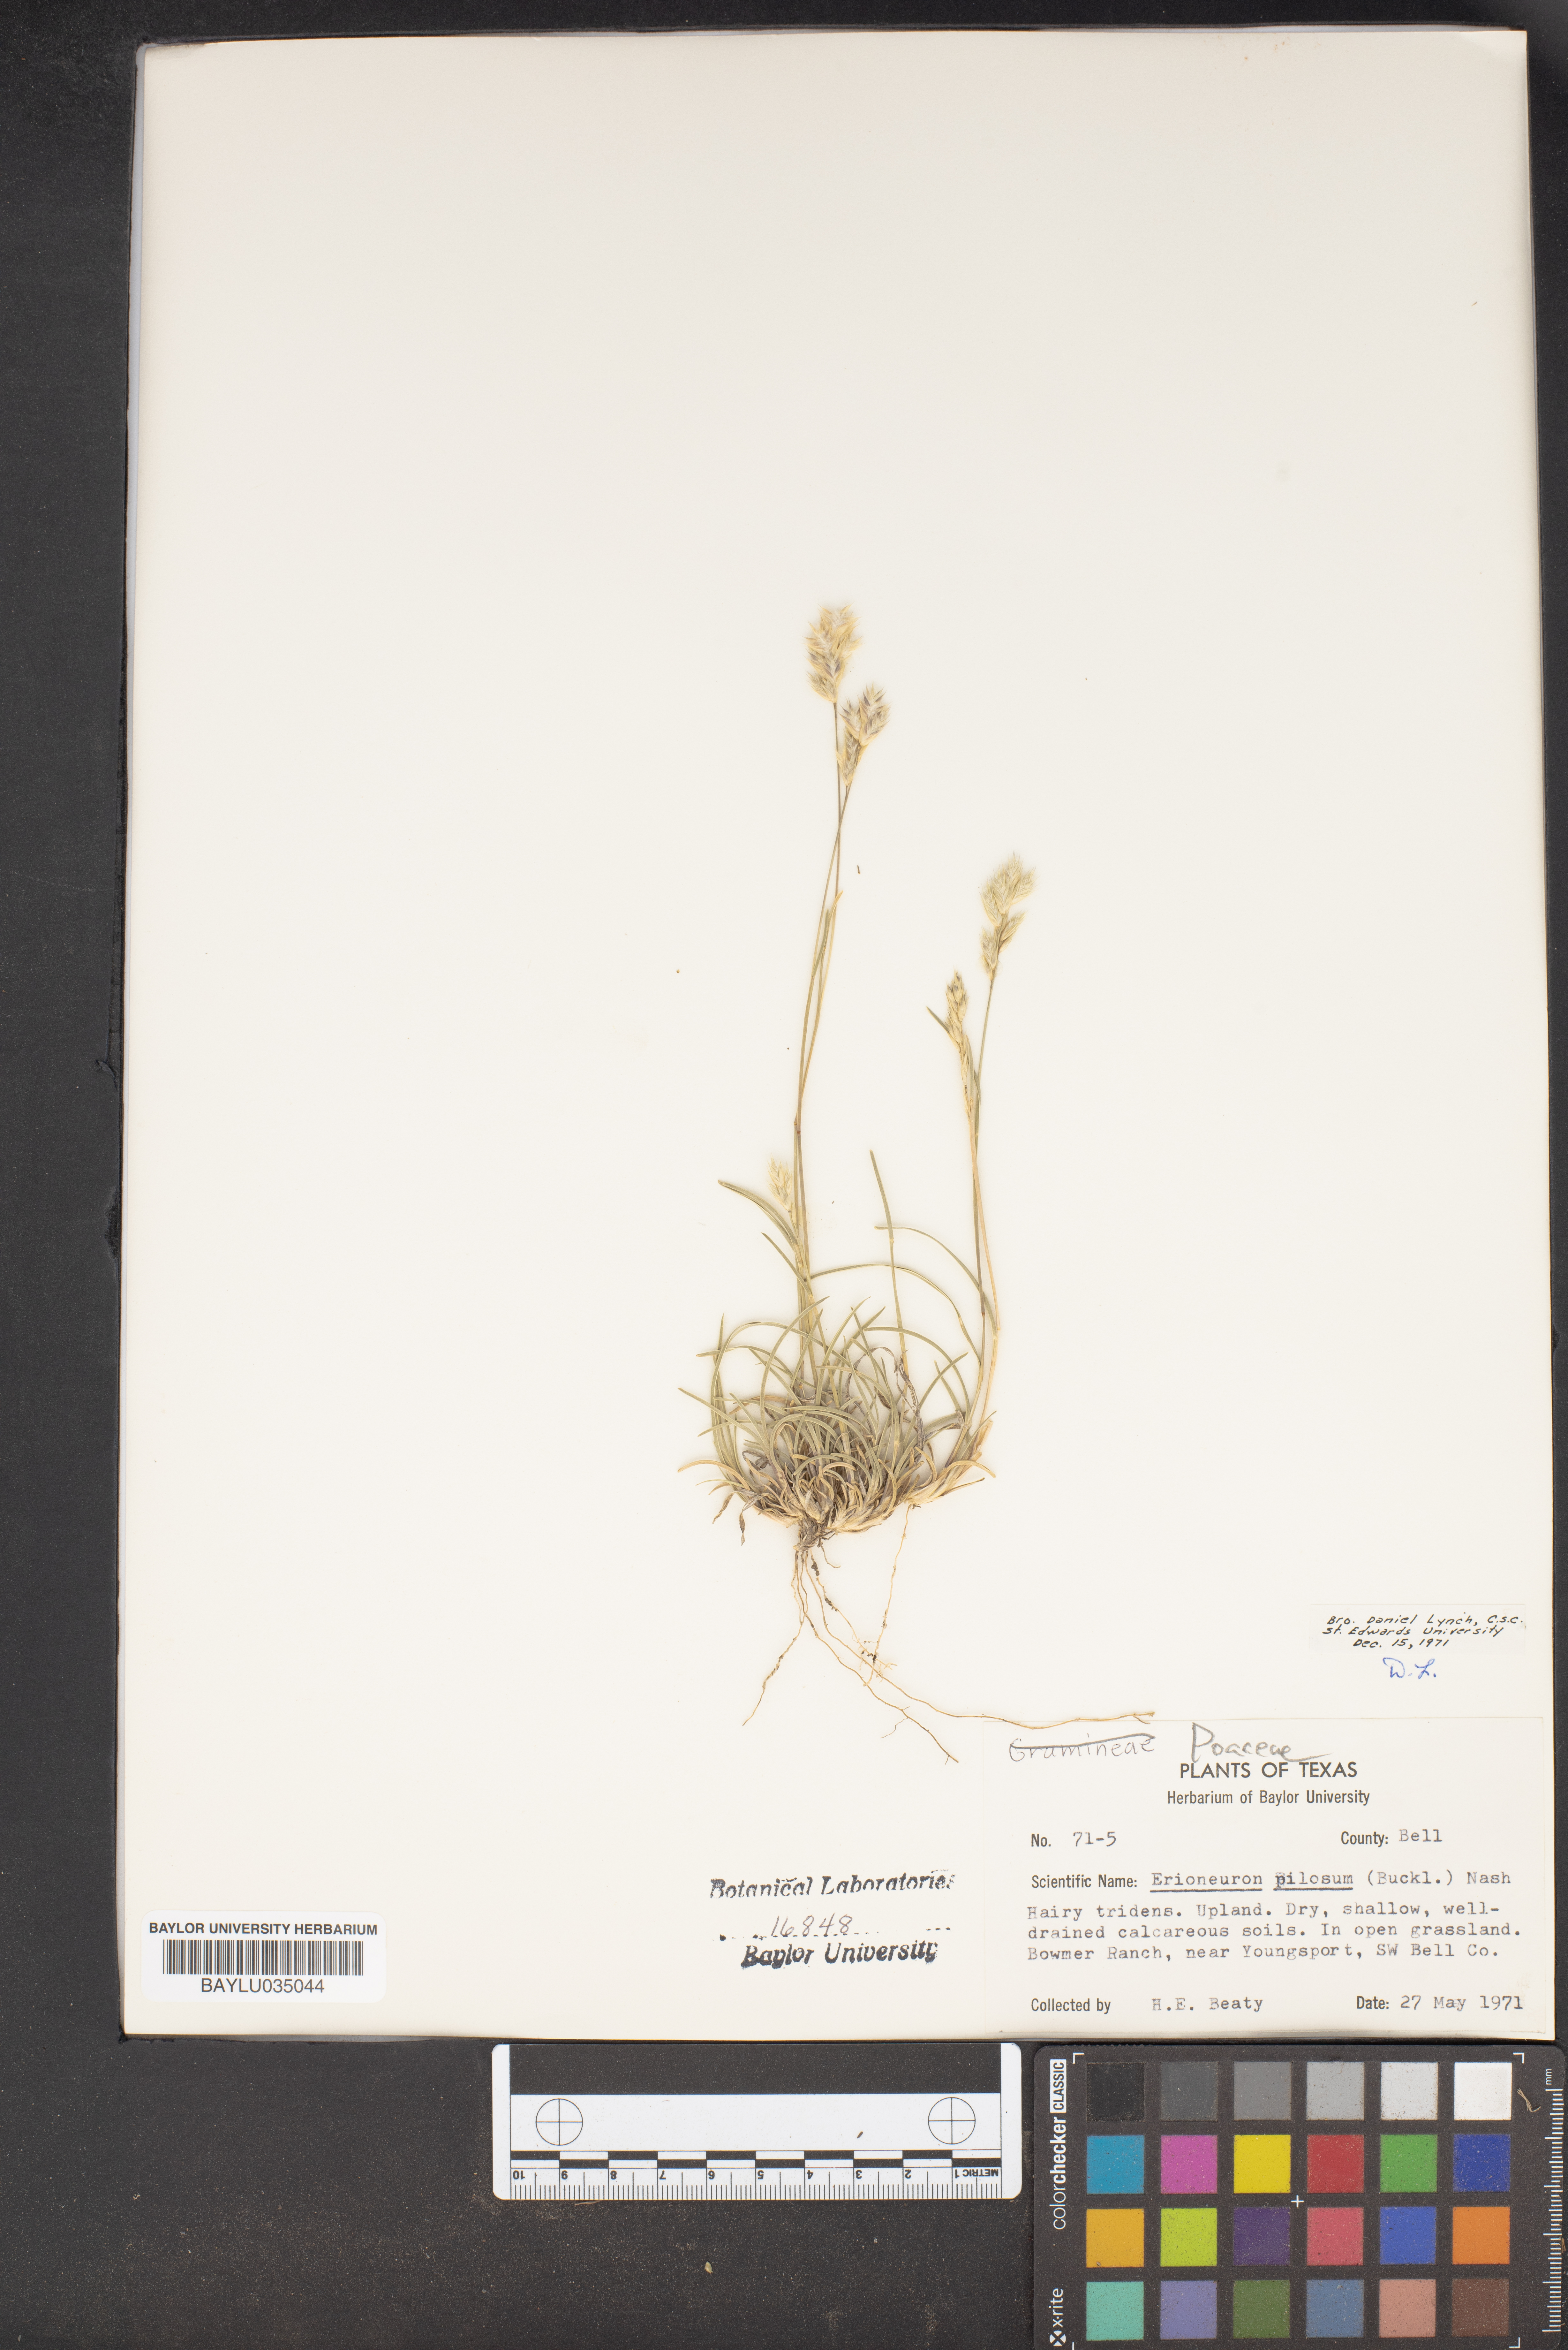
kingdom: Plantae
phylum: Tracheophyta
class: Liliopsida
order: Poales
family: Poaceae
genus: Erioneuron
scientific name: Erioneuron pilosum
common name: Hairy woolly grass
